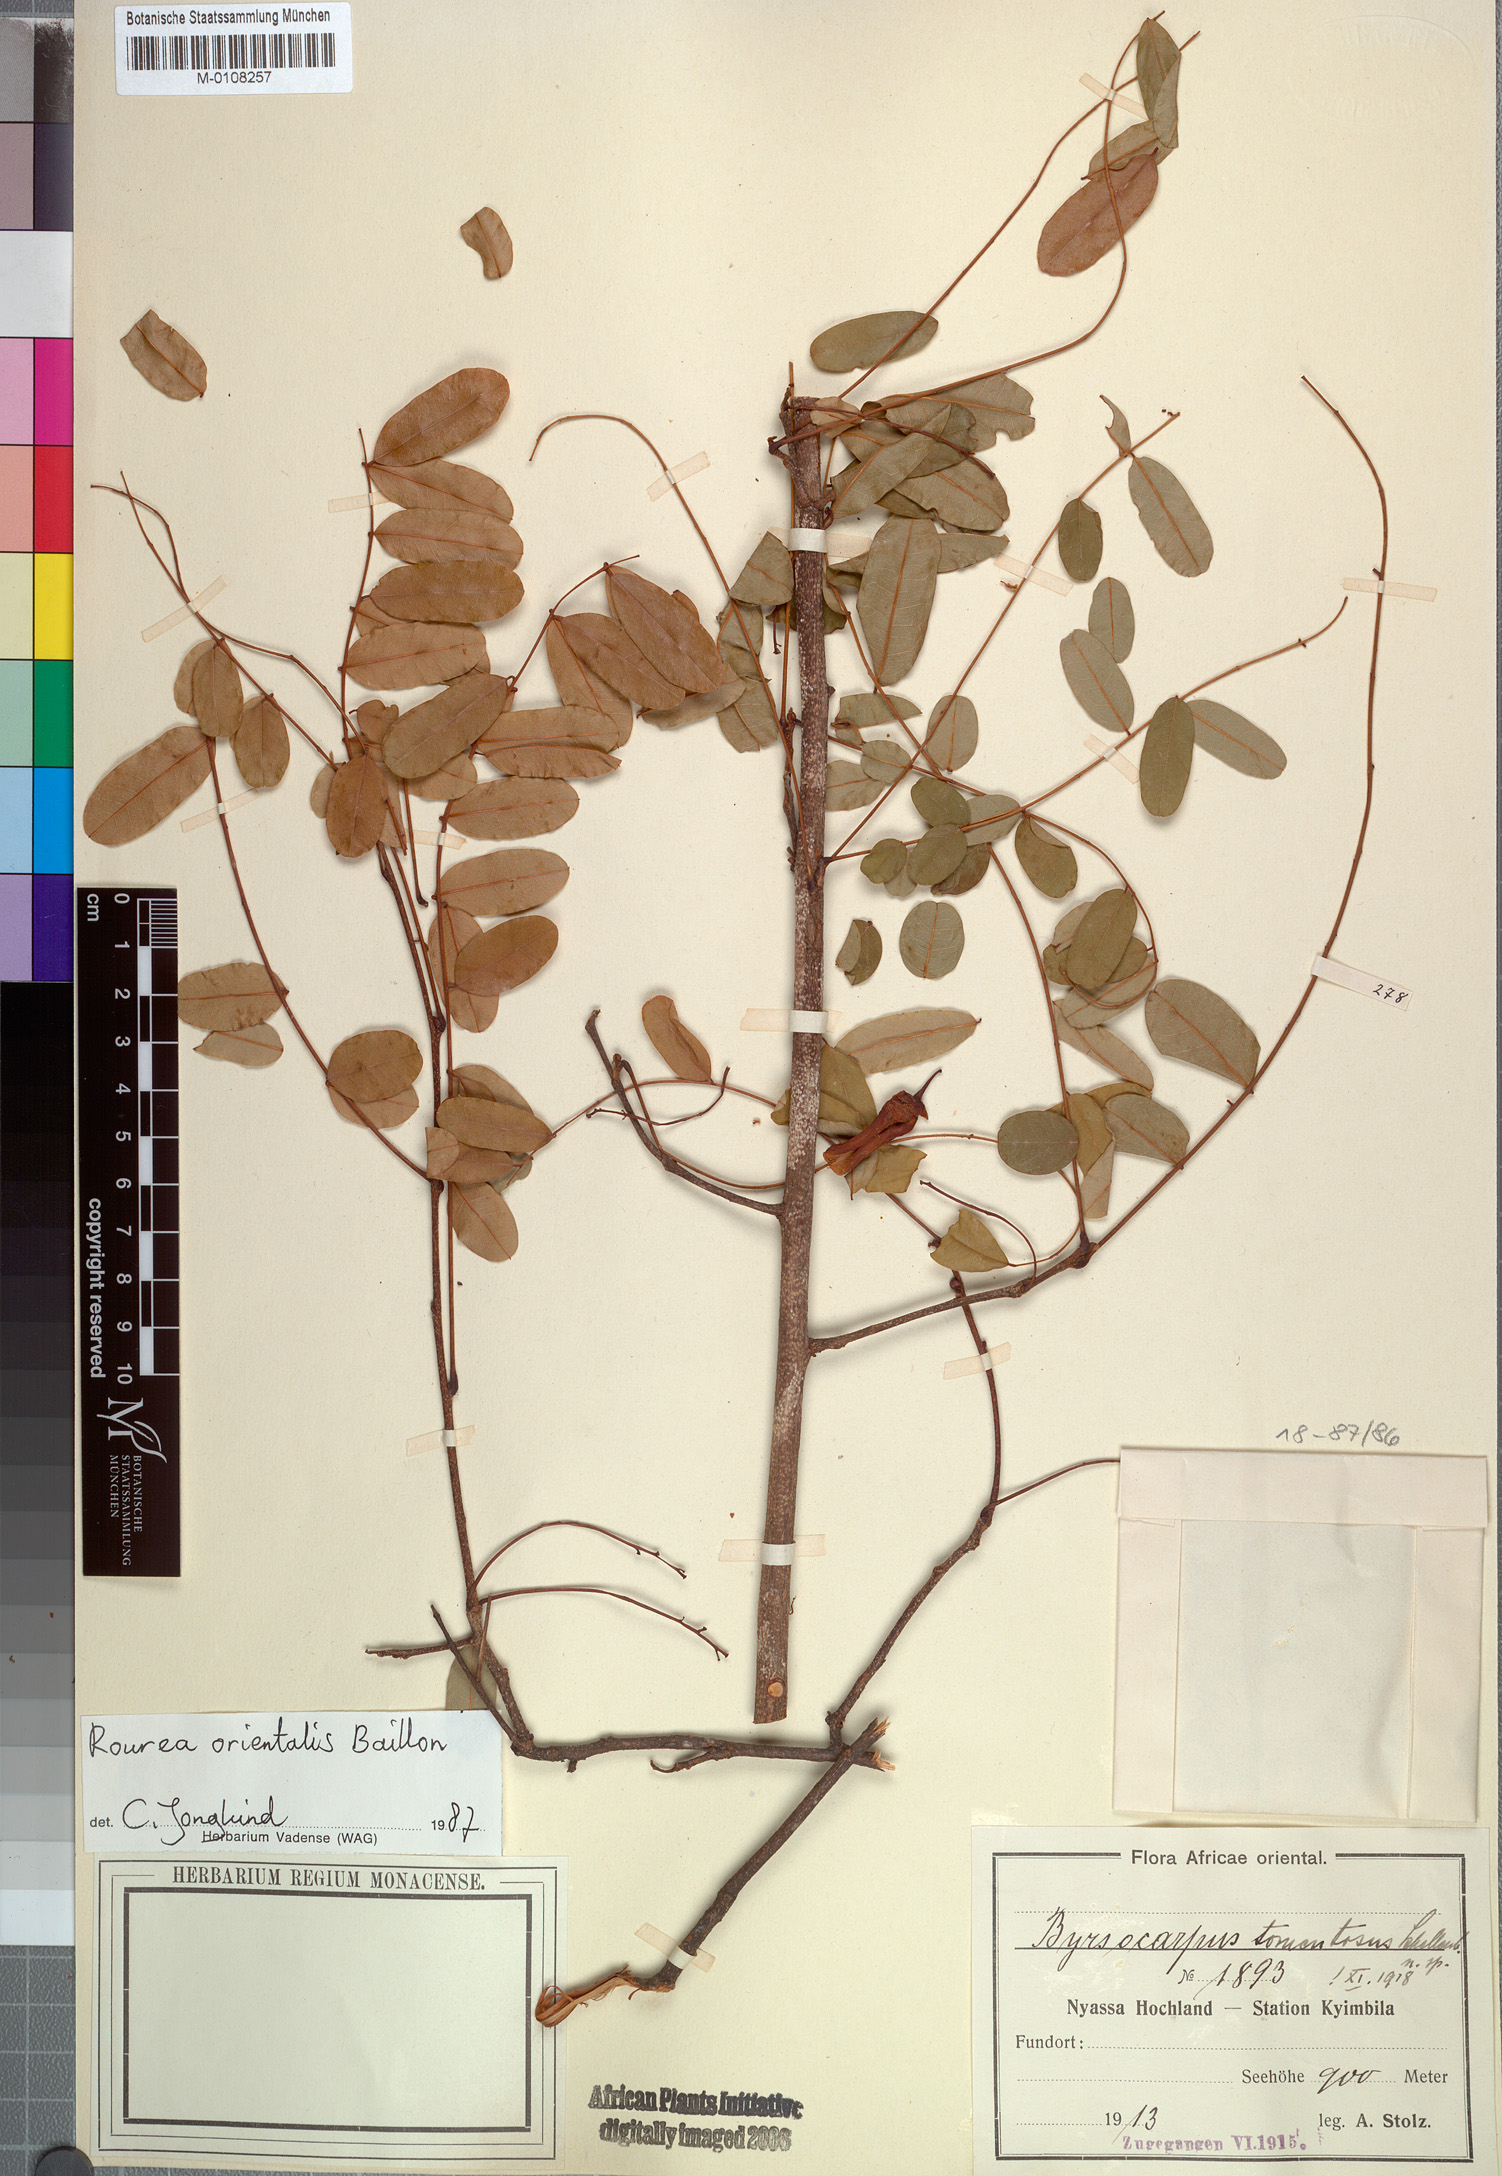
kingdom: Plantae
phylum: Tracheophyta
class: Magnoliopsida
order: Oxalidales
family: Connaraceae
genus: Rourea
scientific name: Rourea orientalis
